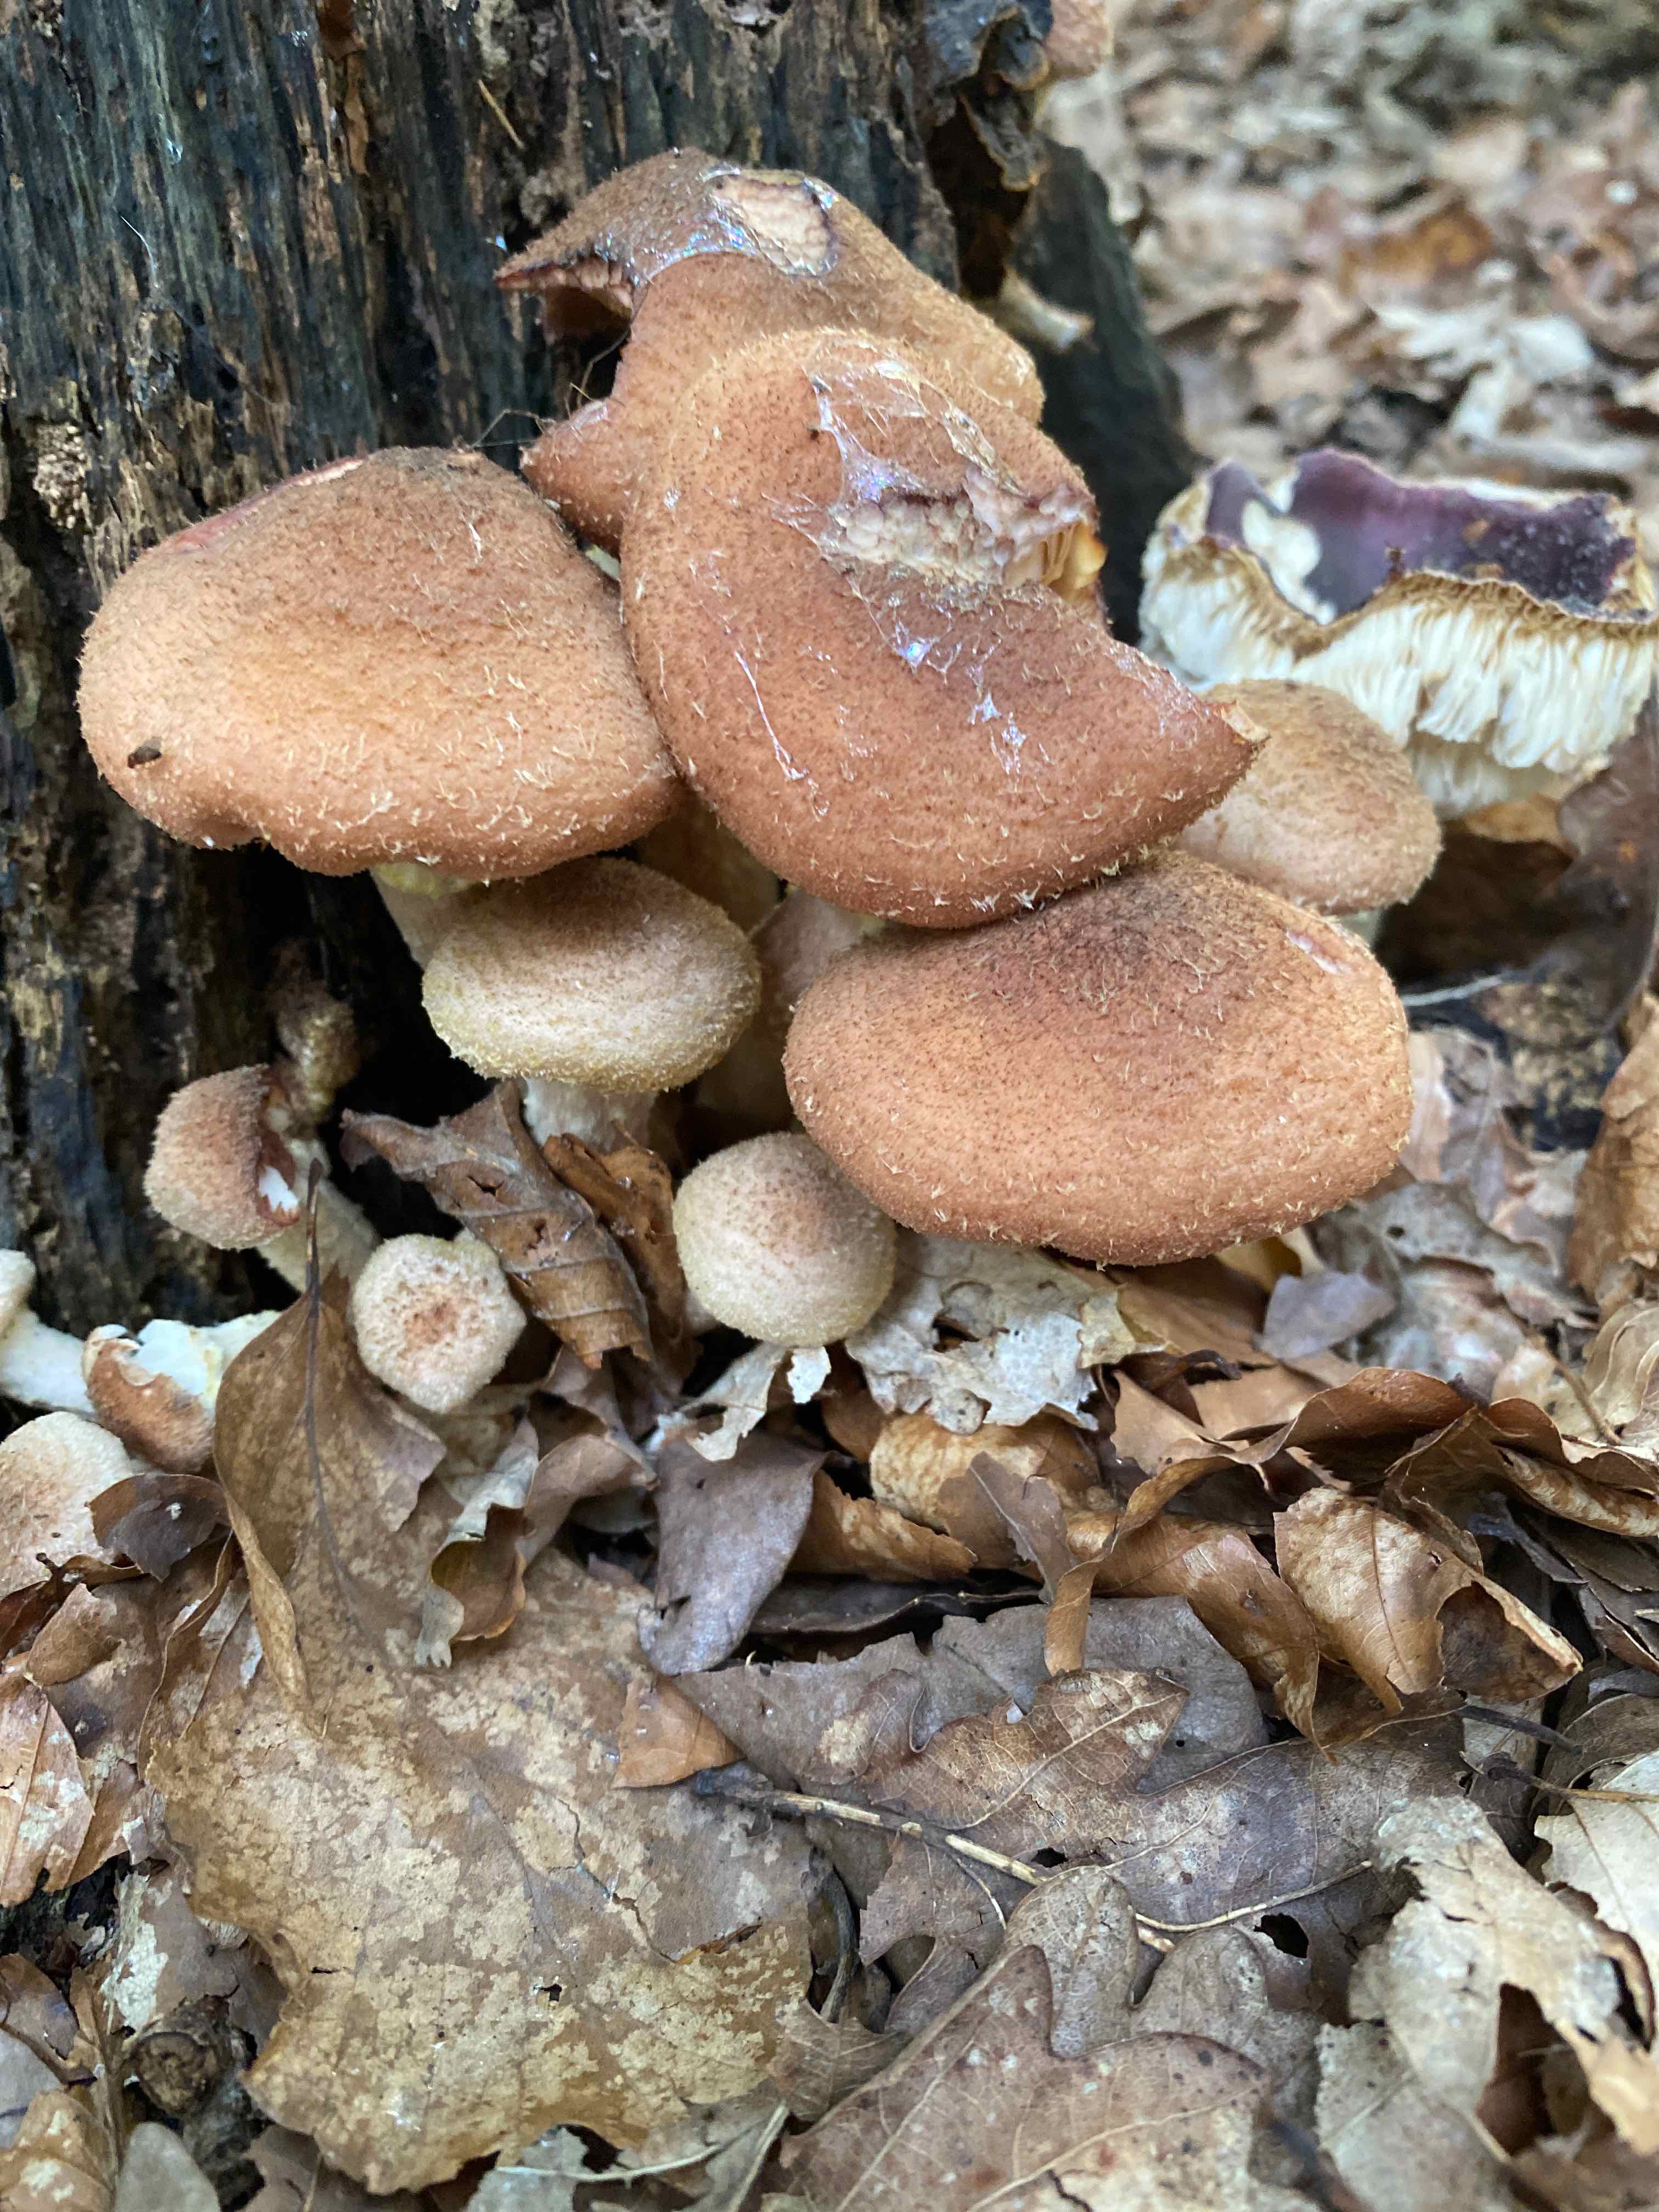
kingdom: Fungi
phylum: Basidiomycota
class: Agaricomycetes
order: Agaricales
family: Physalacriaceae
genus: Armillaria
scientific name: Armillaria lutea
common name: køllestokket honningsvamp
